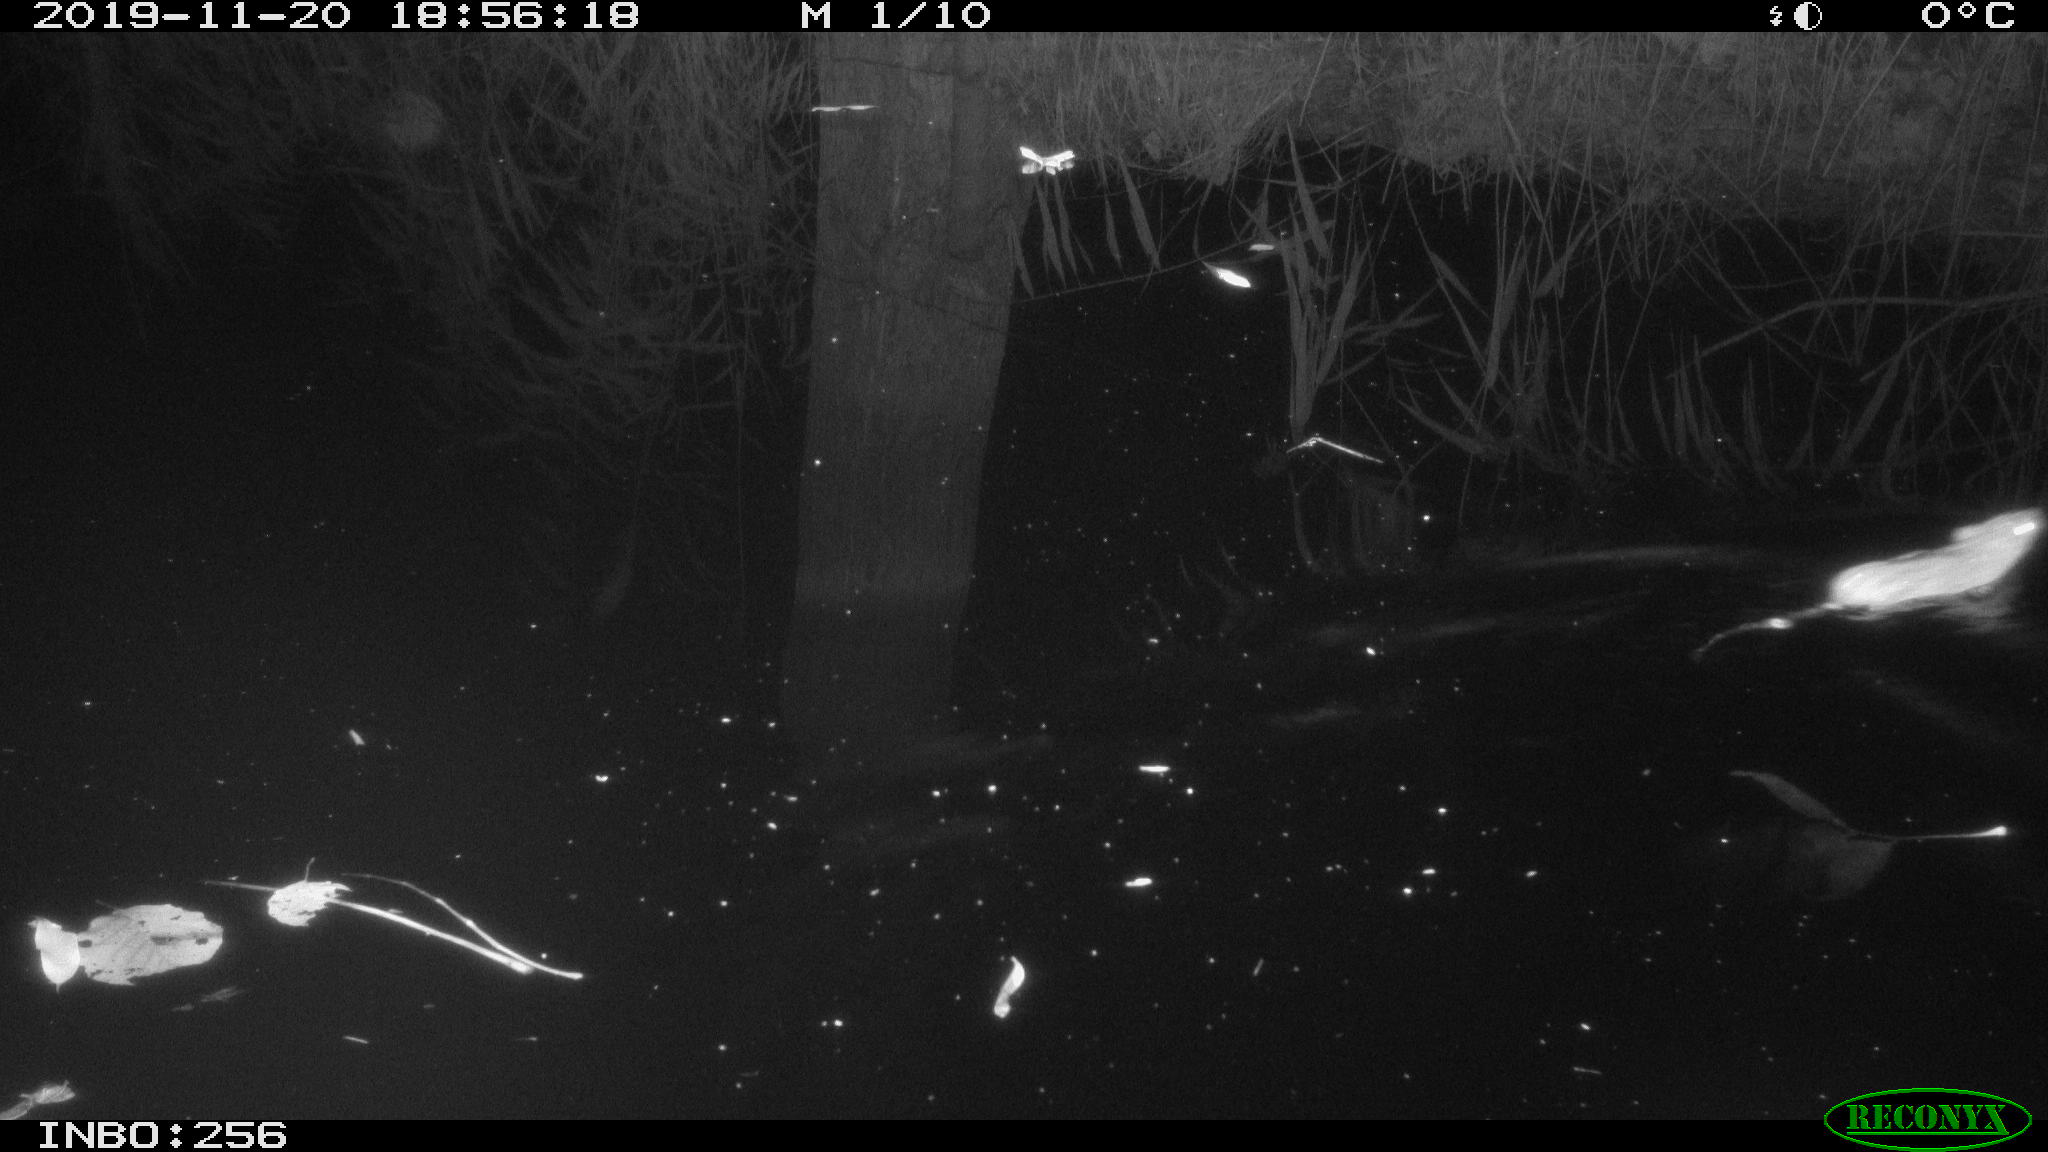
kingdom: Animalia
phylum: Chordata
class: Mammalia
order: Rodentia
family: Muridae
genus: Rattus
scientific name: Rattus norvegicus
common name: Brown rat
